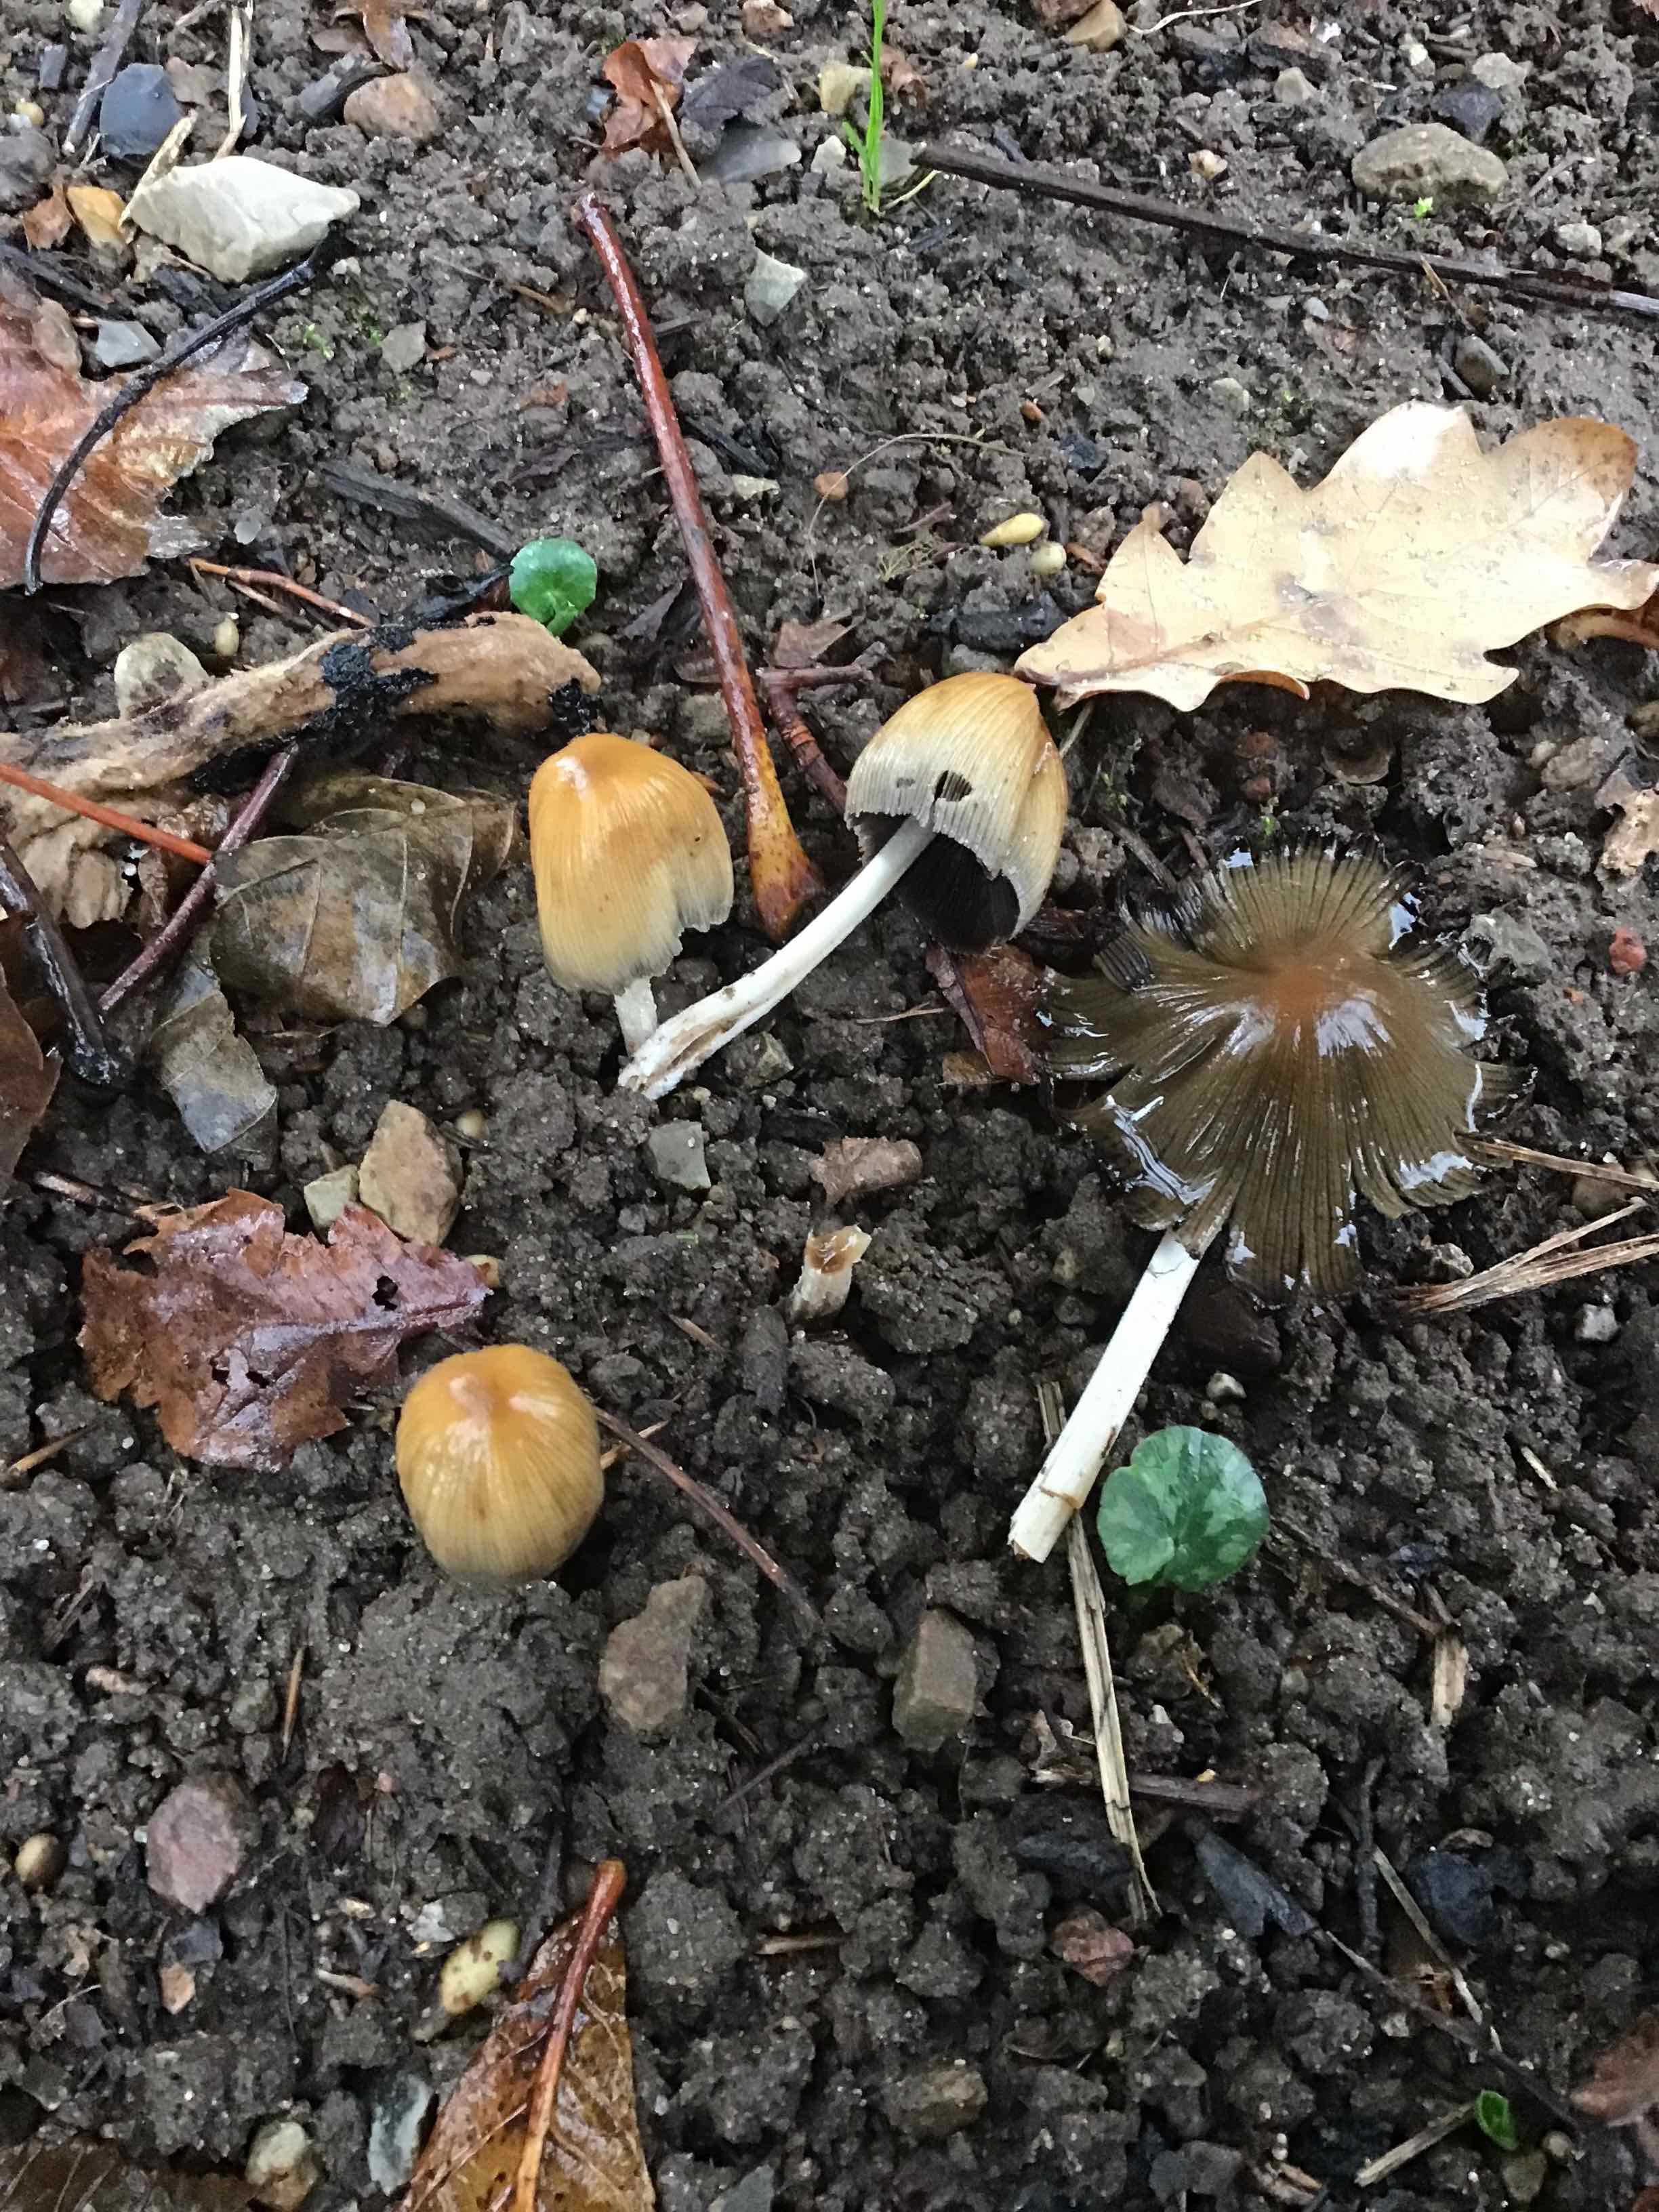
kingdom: Fungi
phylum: Basidiomycota
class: Agaricomycetes
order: Agaricales
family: Psathyrellaceae
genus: Coprinellus
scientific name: Coprinellus
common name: blækhat
